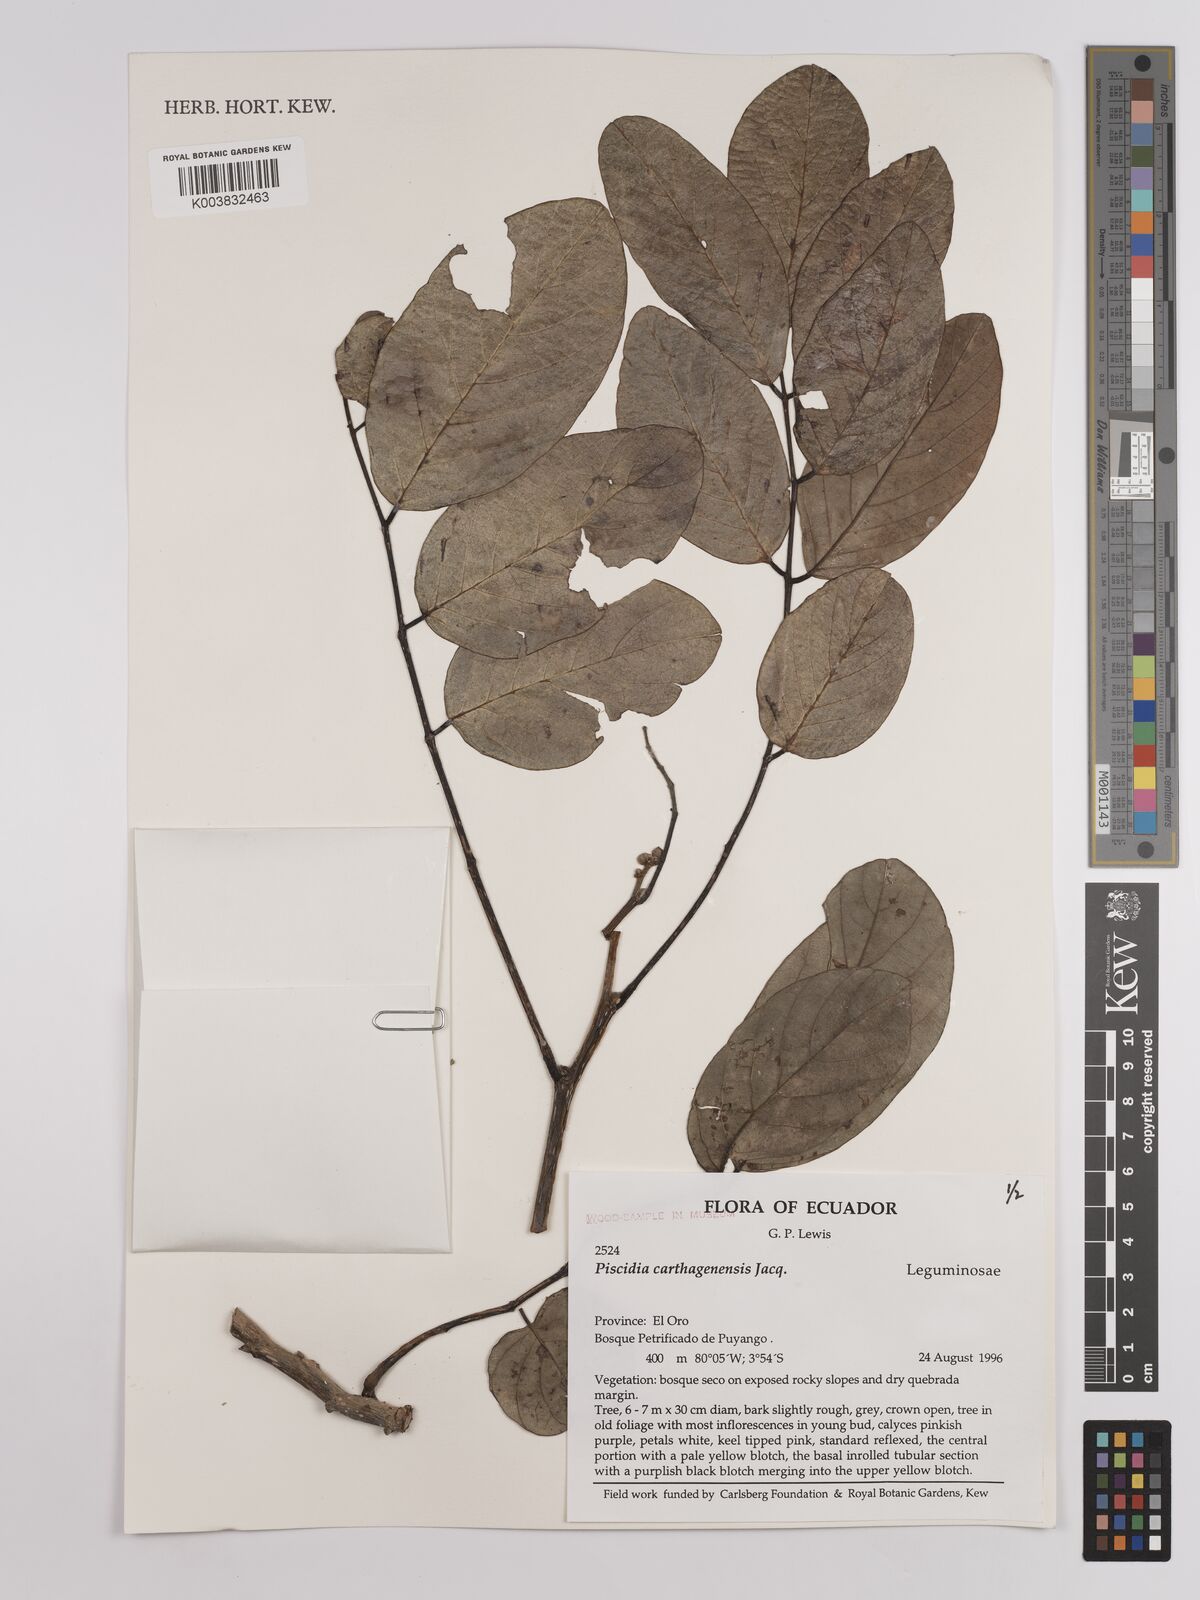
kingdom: Plantae
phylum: Tracheophyta
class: Magnoliopsida
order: Fabales
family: Fabaceae
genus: Piscidia
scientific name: Piscidia carthagenensis
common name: Stinkwood
